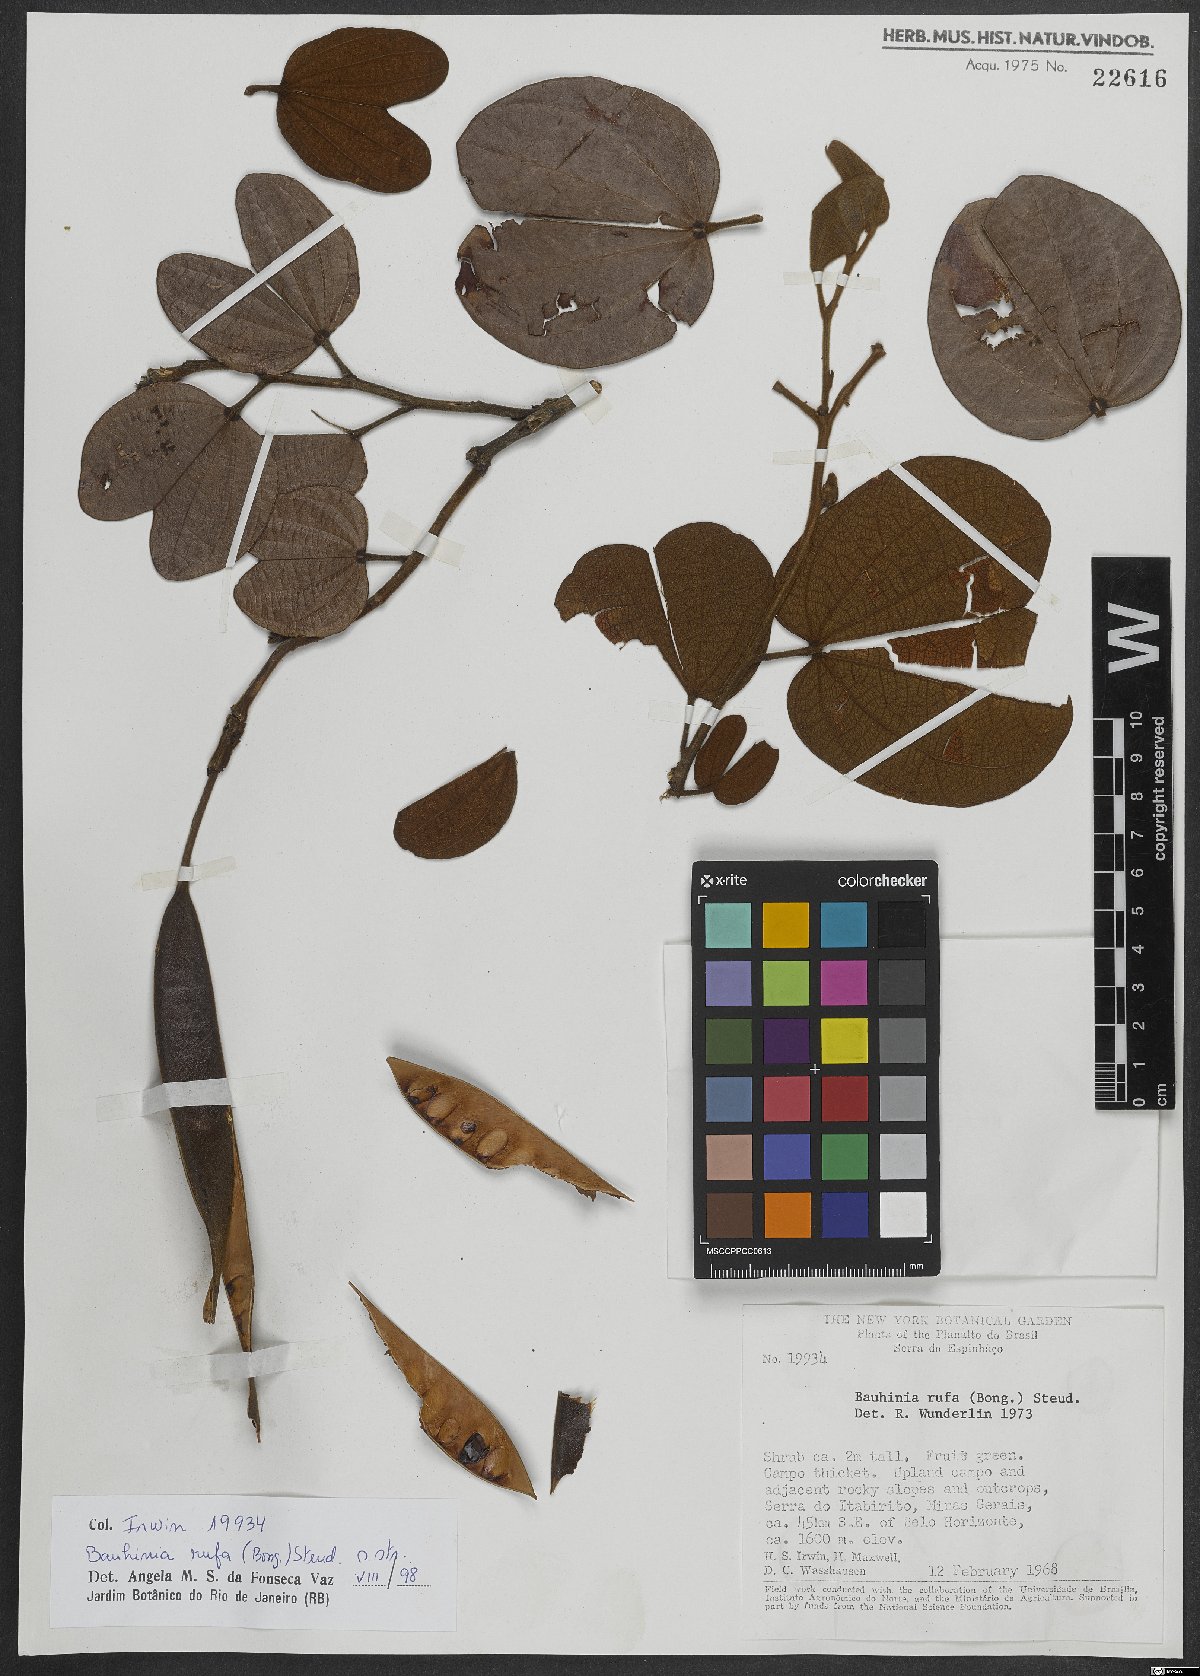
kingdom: Plantae
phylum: Tracheophyta
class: Magnoliopsida
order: Fabales
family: Fabaceae
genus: Bauhinia
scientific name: Bauhinia rufa
